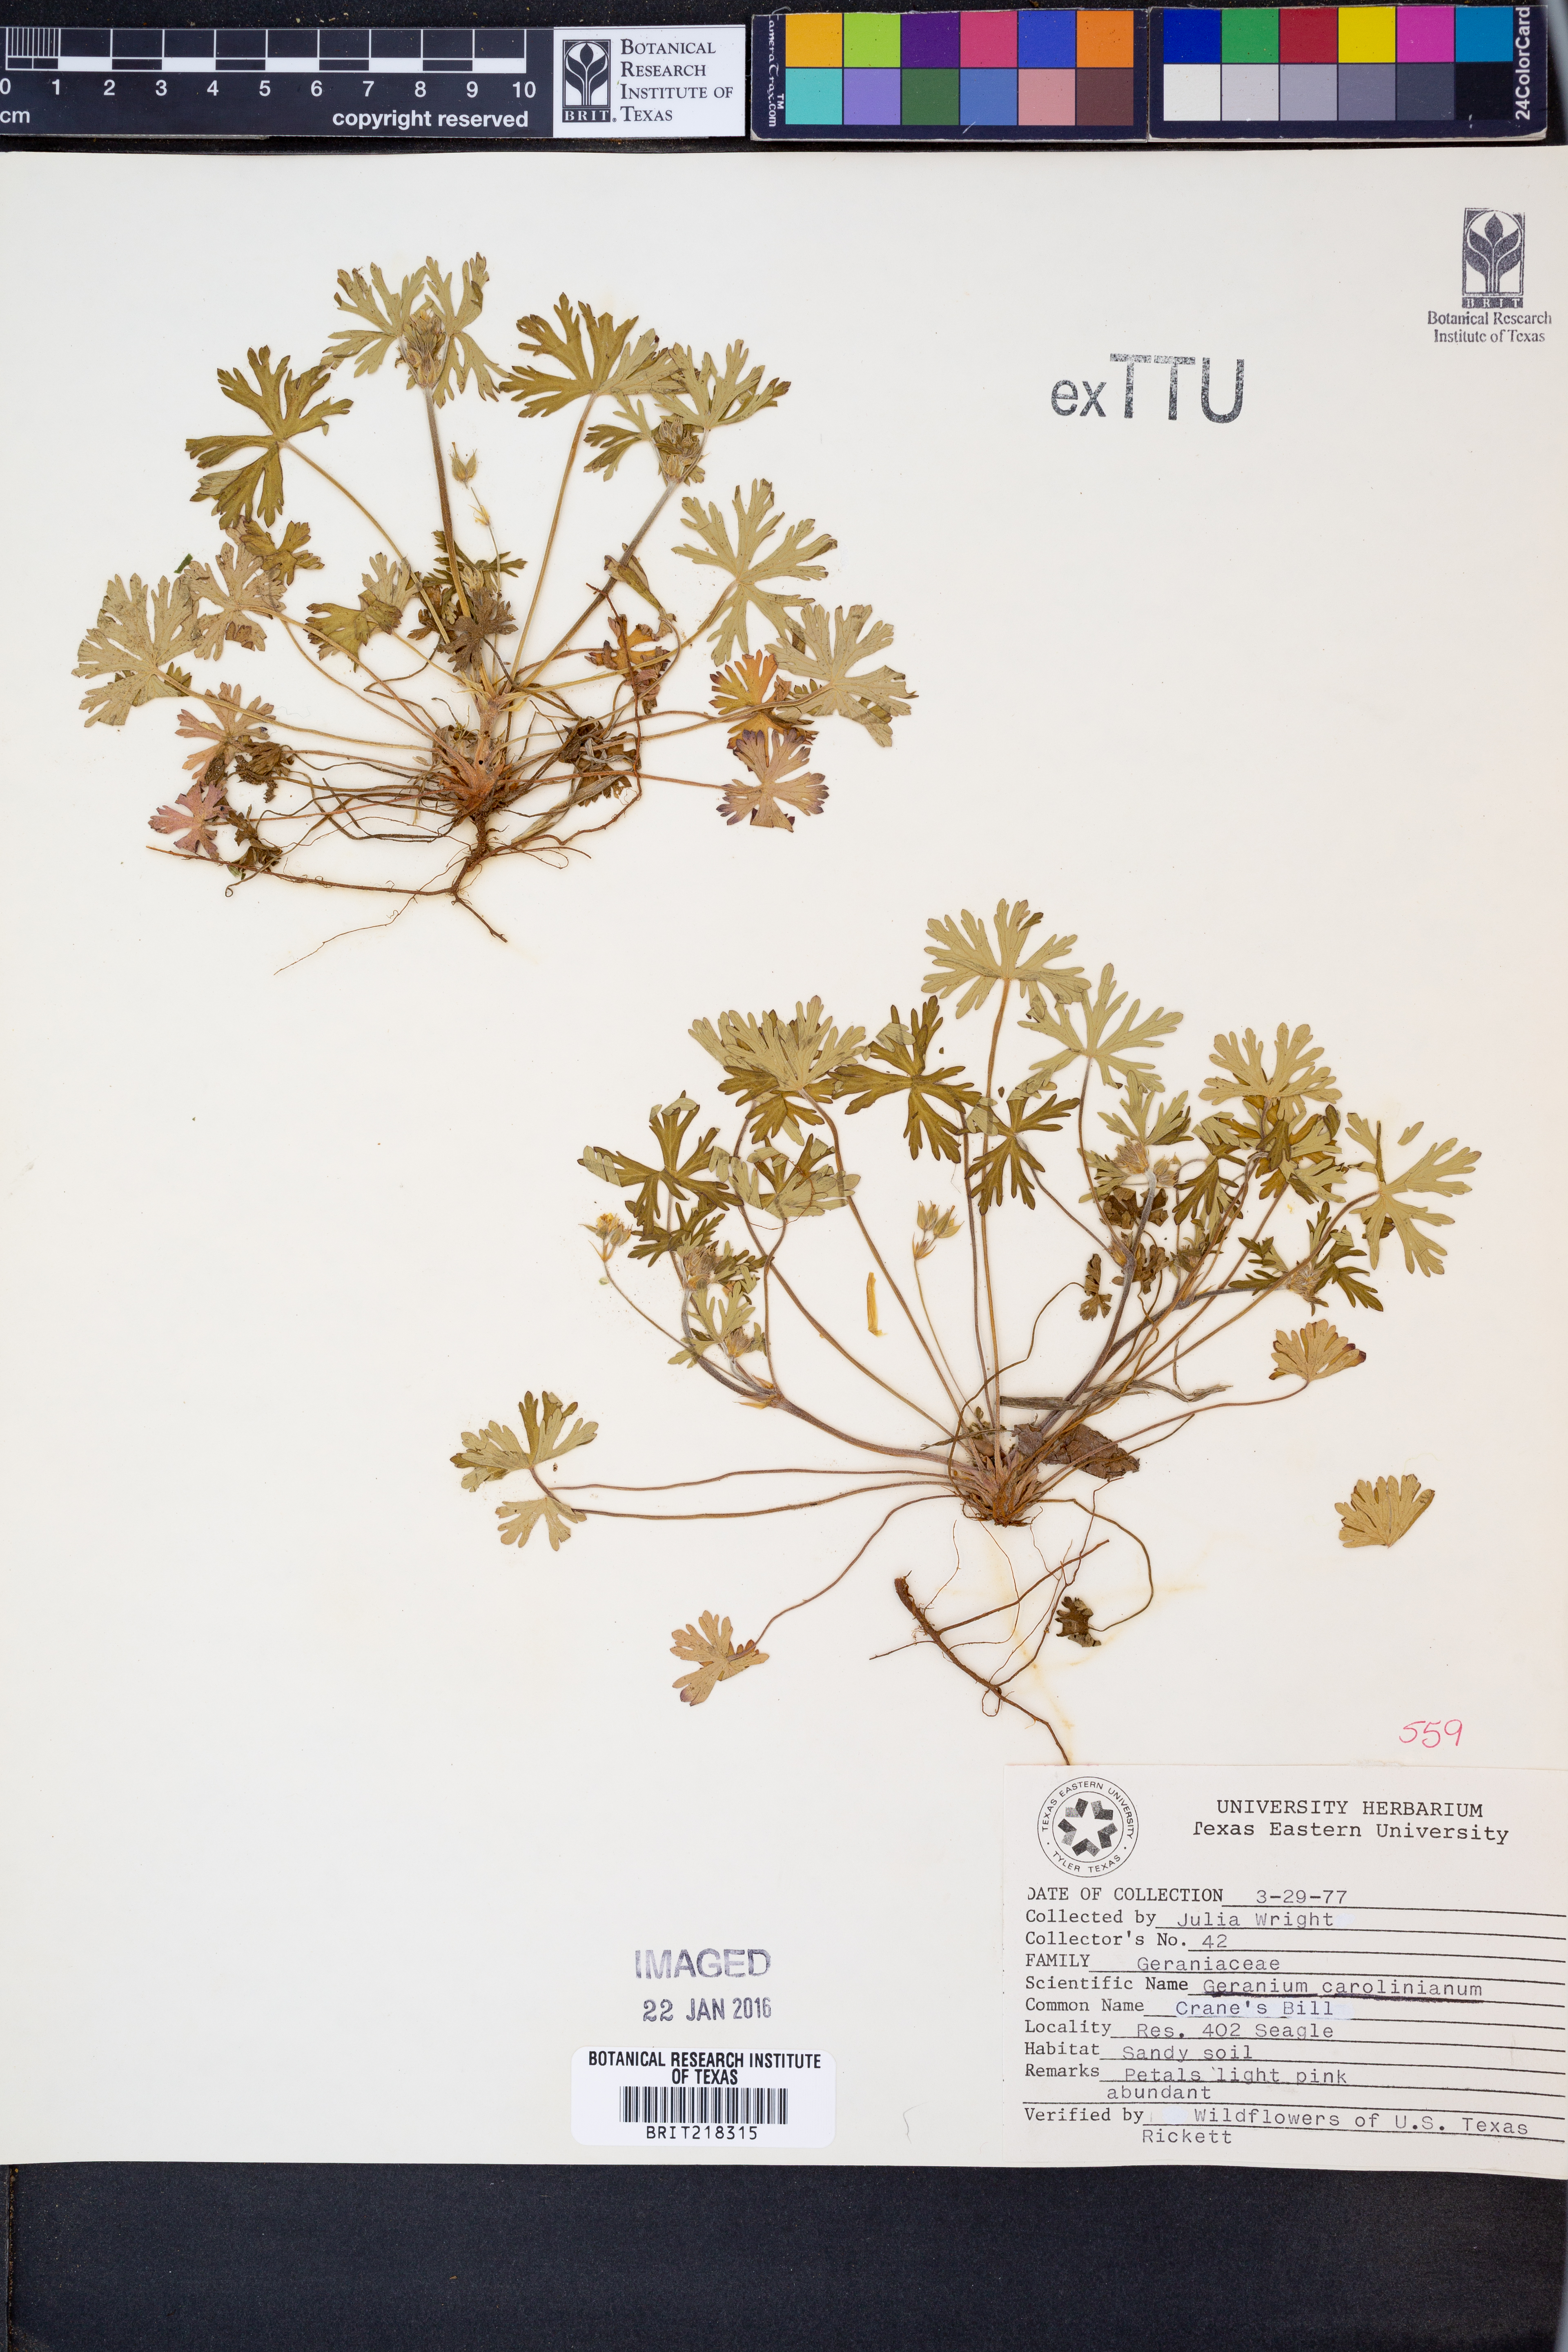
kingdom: Plantae
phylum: Tracheophyta
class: Magnoliopsida
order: Geraniales
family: Geraniaceae
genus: Geranium
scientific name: Geranium carolinianum
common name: Carolina crane's-bill
